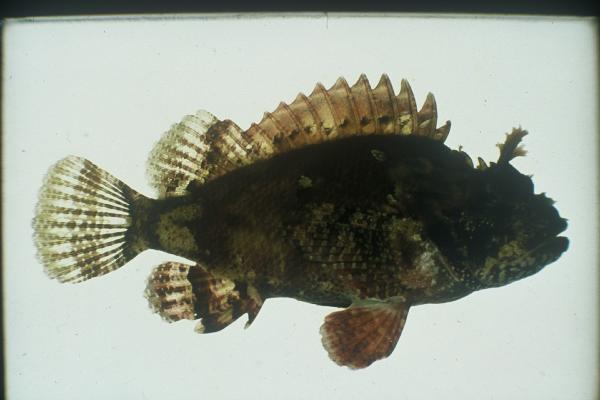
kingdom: Animalia
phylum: Chordata
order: Scorpaeniformes
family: Scorpaenidae
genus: Sebastapistes
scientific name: Sebastapistes mauritiana
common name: Spineblotch scorpionfish
